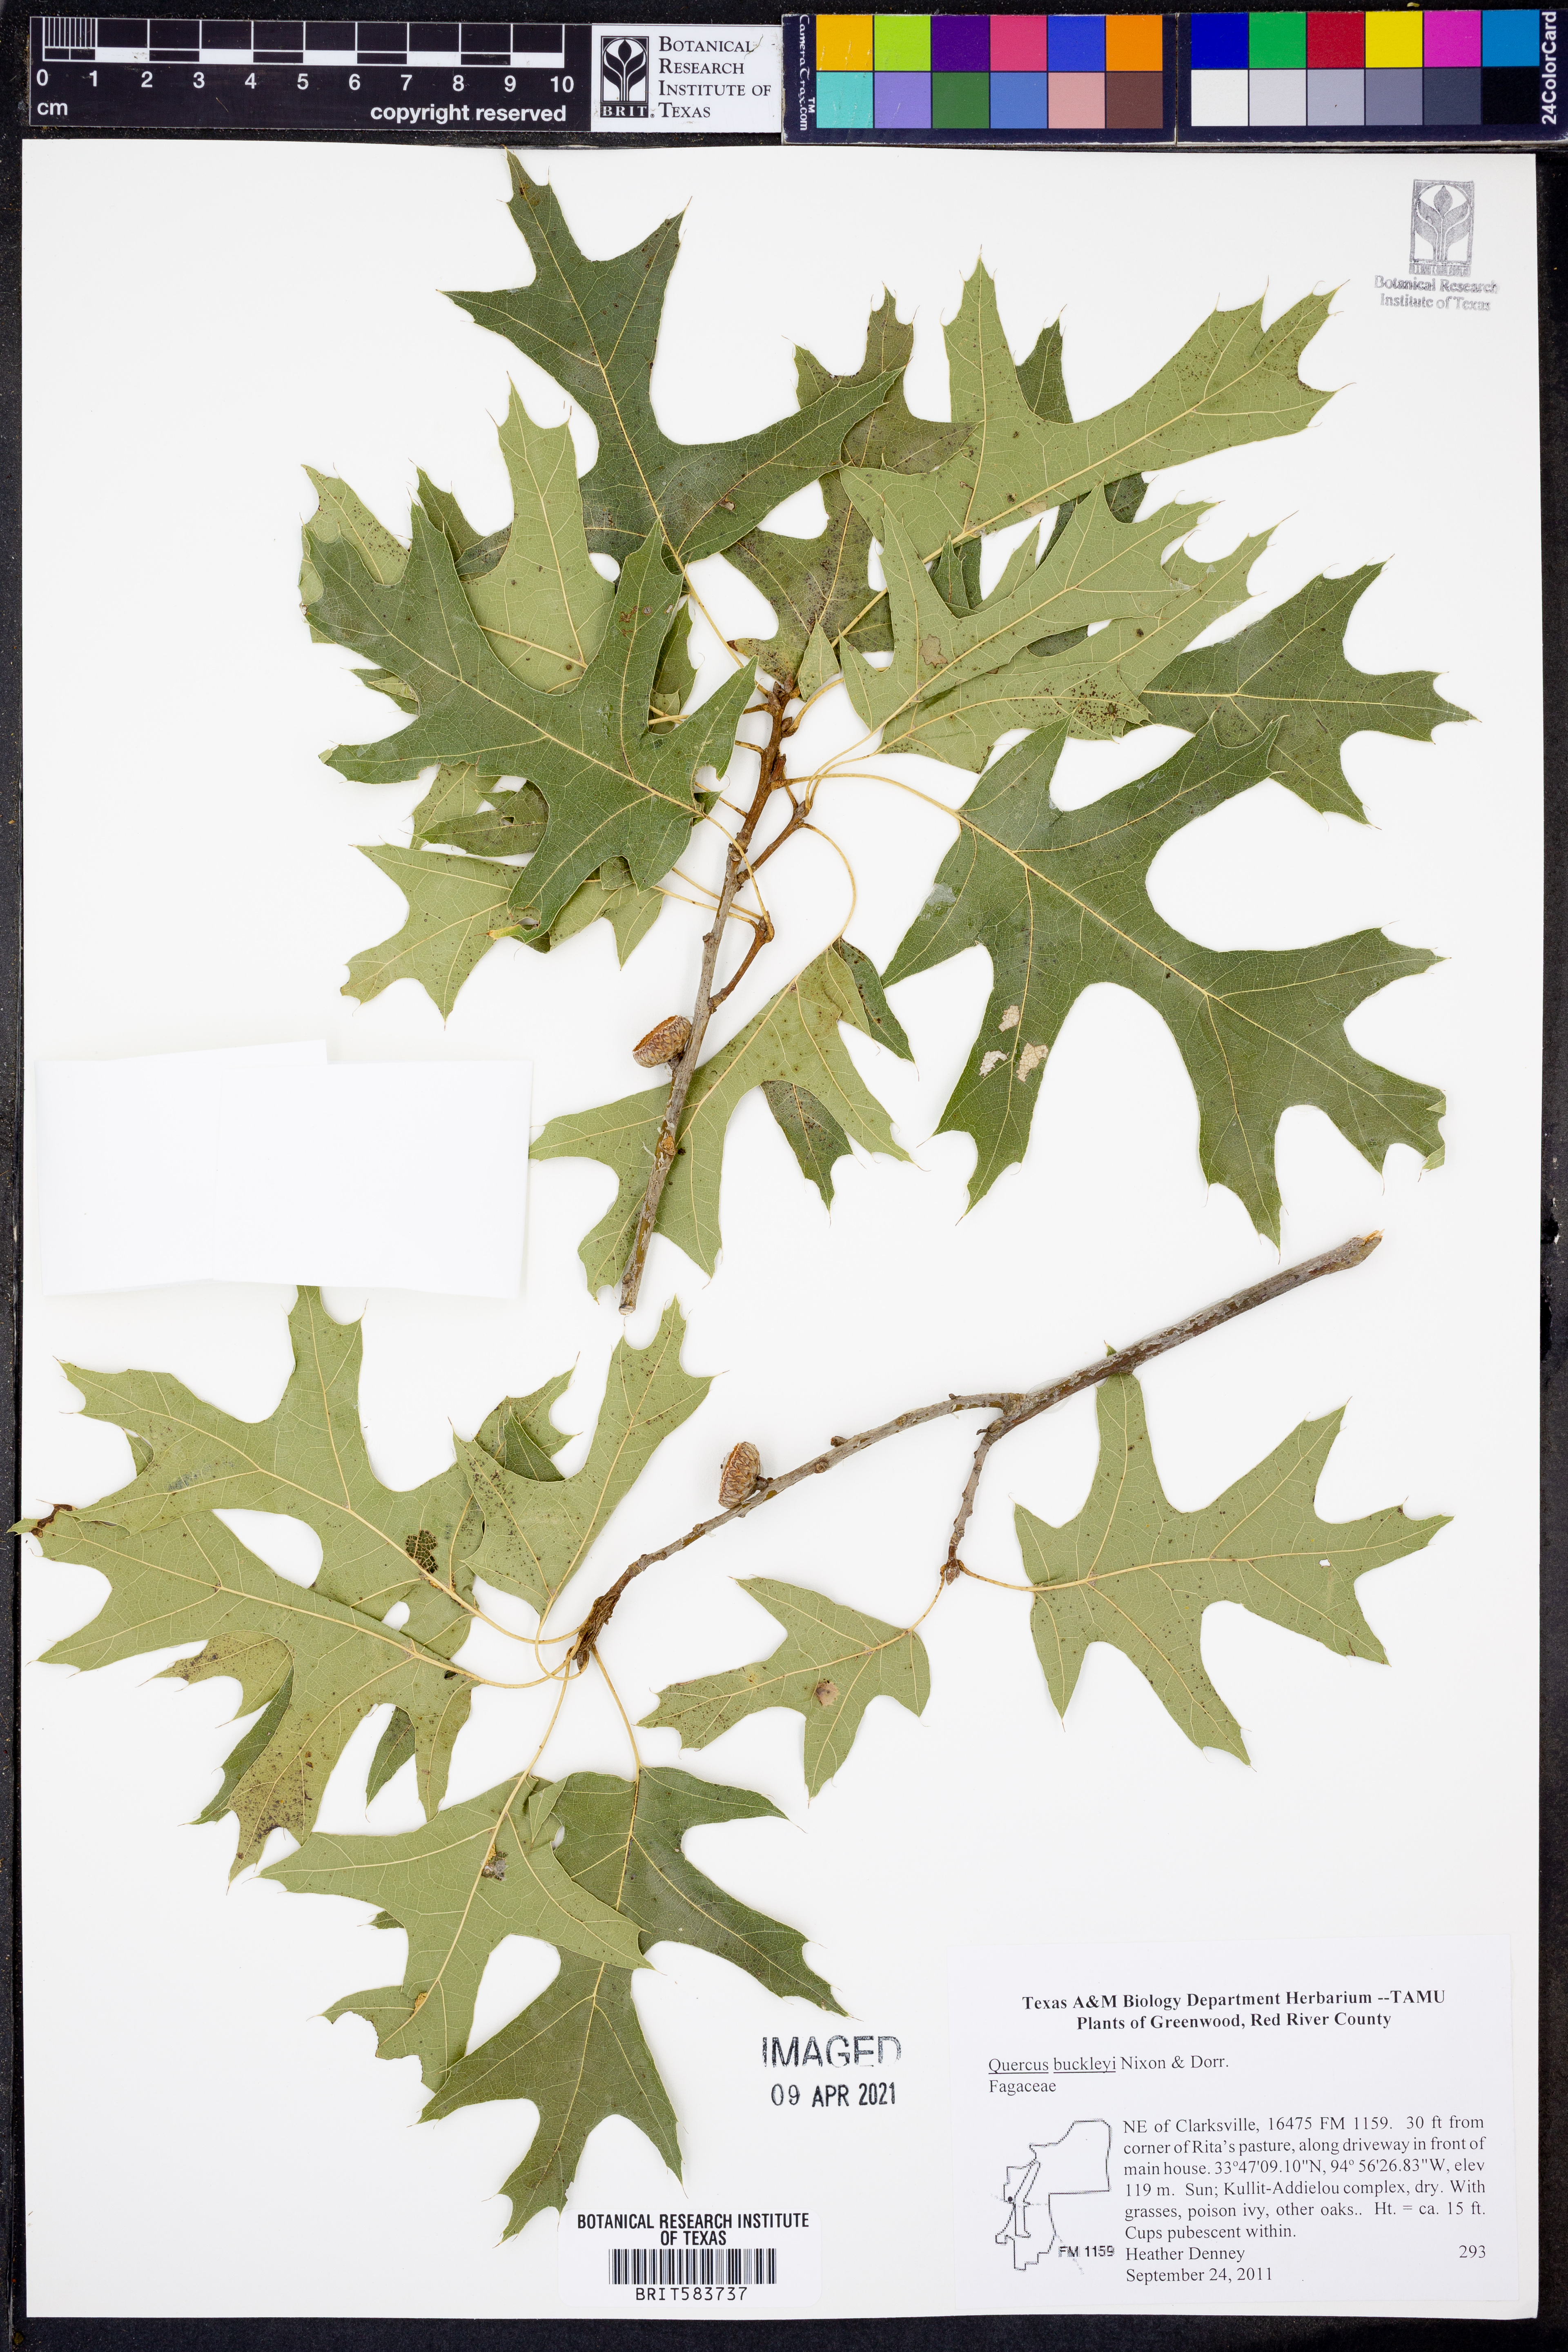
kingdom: Plantae
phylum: Tracheophyta
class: Magnoliopsida
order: Fagales
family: Fagaceae
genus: Quercus
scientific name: Quercus buckleyi
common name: Buckley oak
